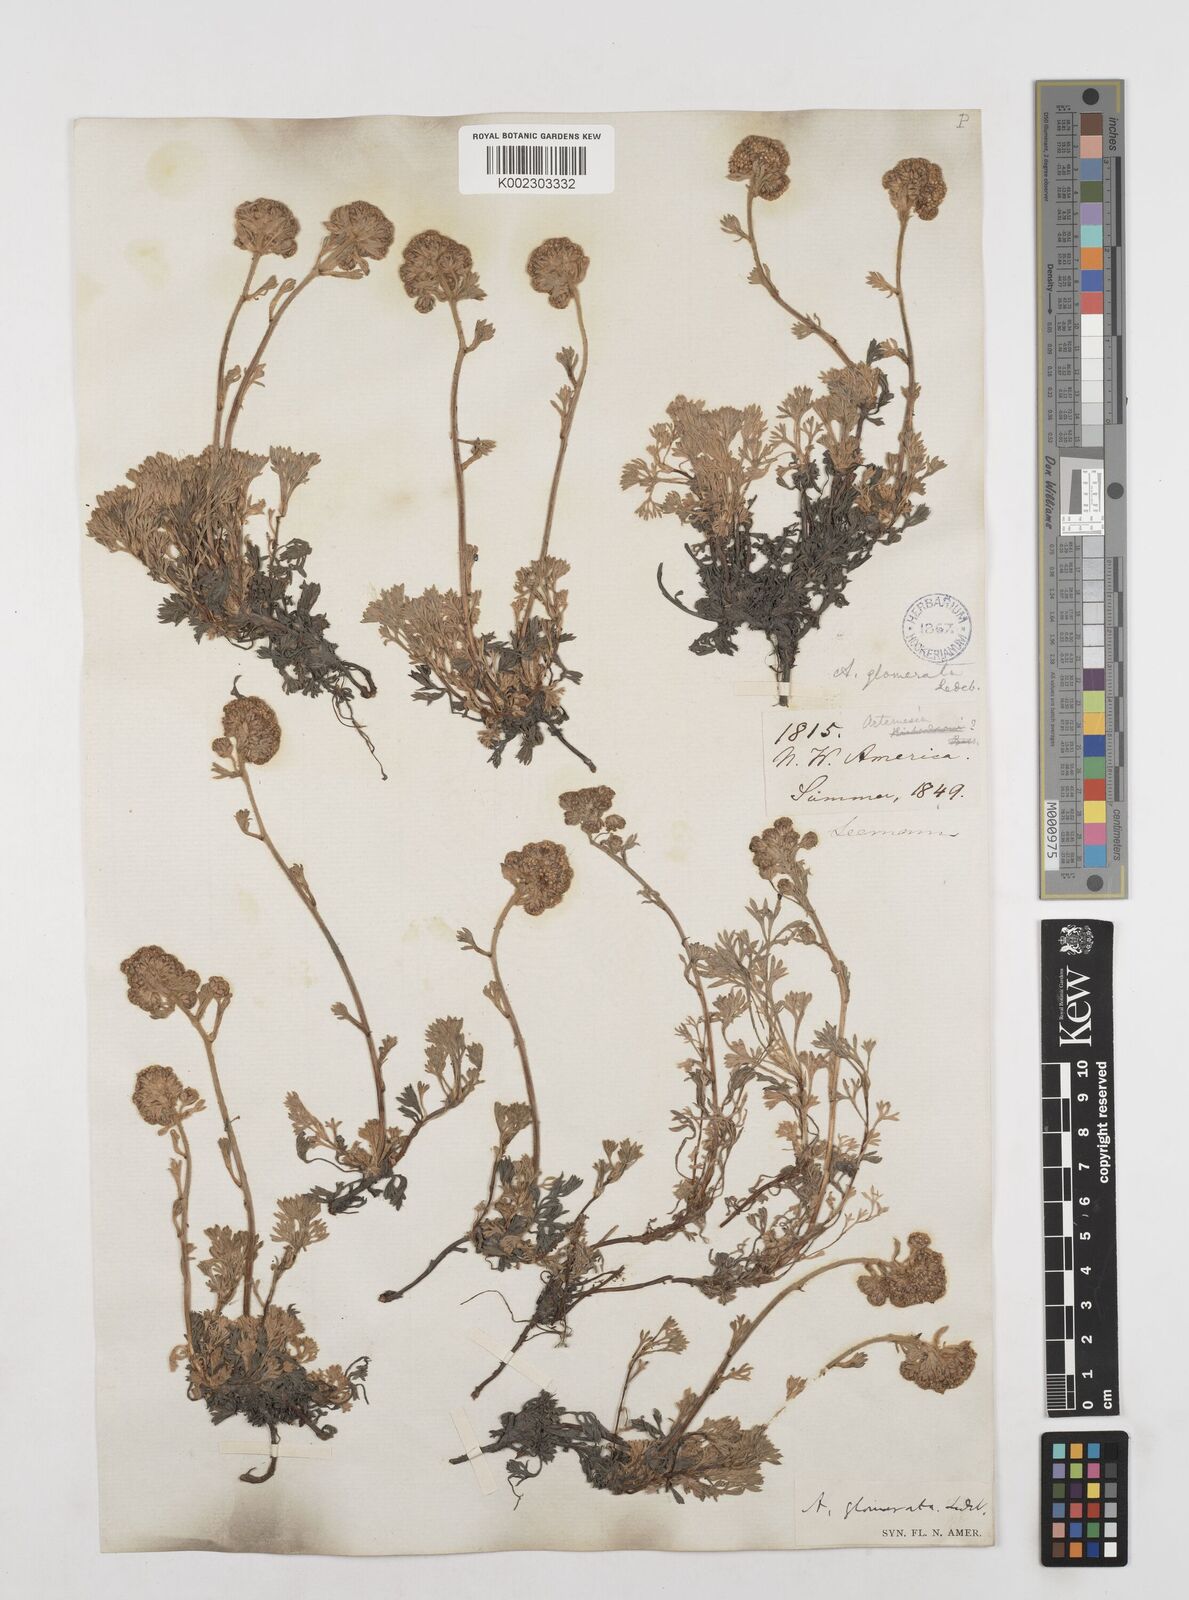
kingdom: Plantae
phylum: Tracheophyta
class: Magnoliopsida
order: Asterales
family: Asteraceae
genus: Artemisia
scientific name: Artemisia glomerata
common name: Pacific alpine wormwood
